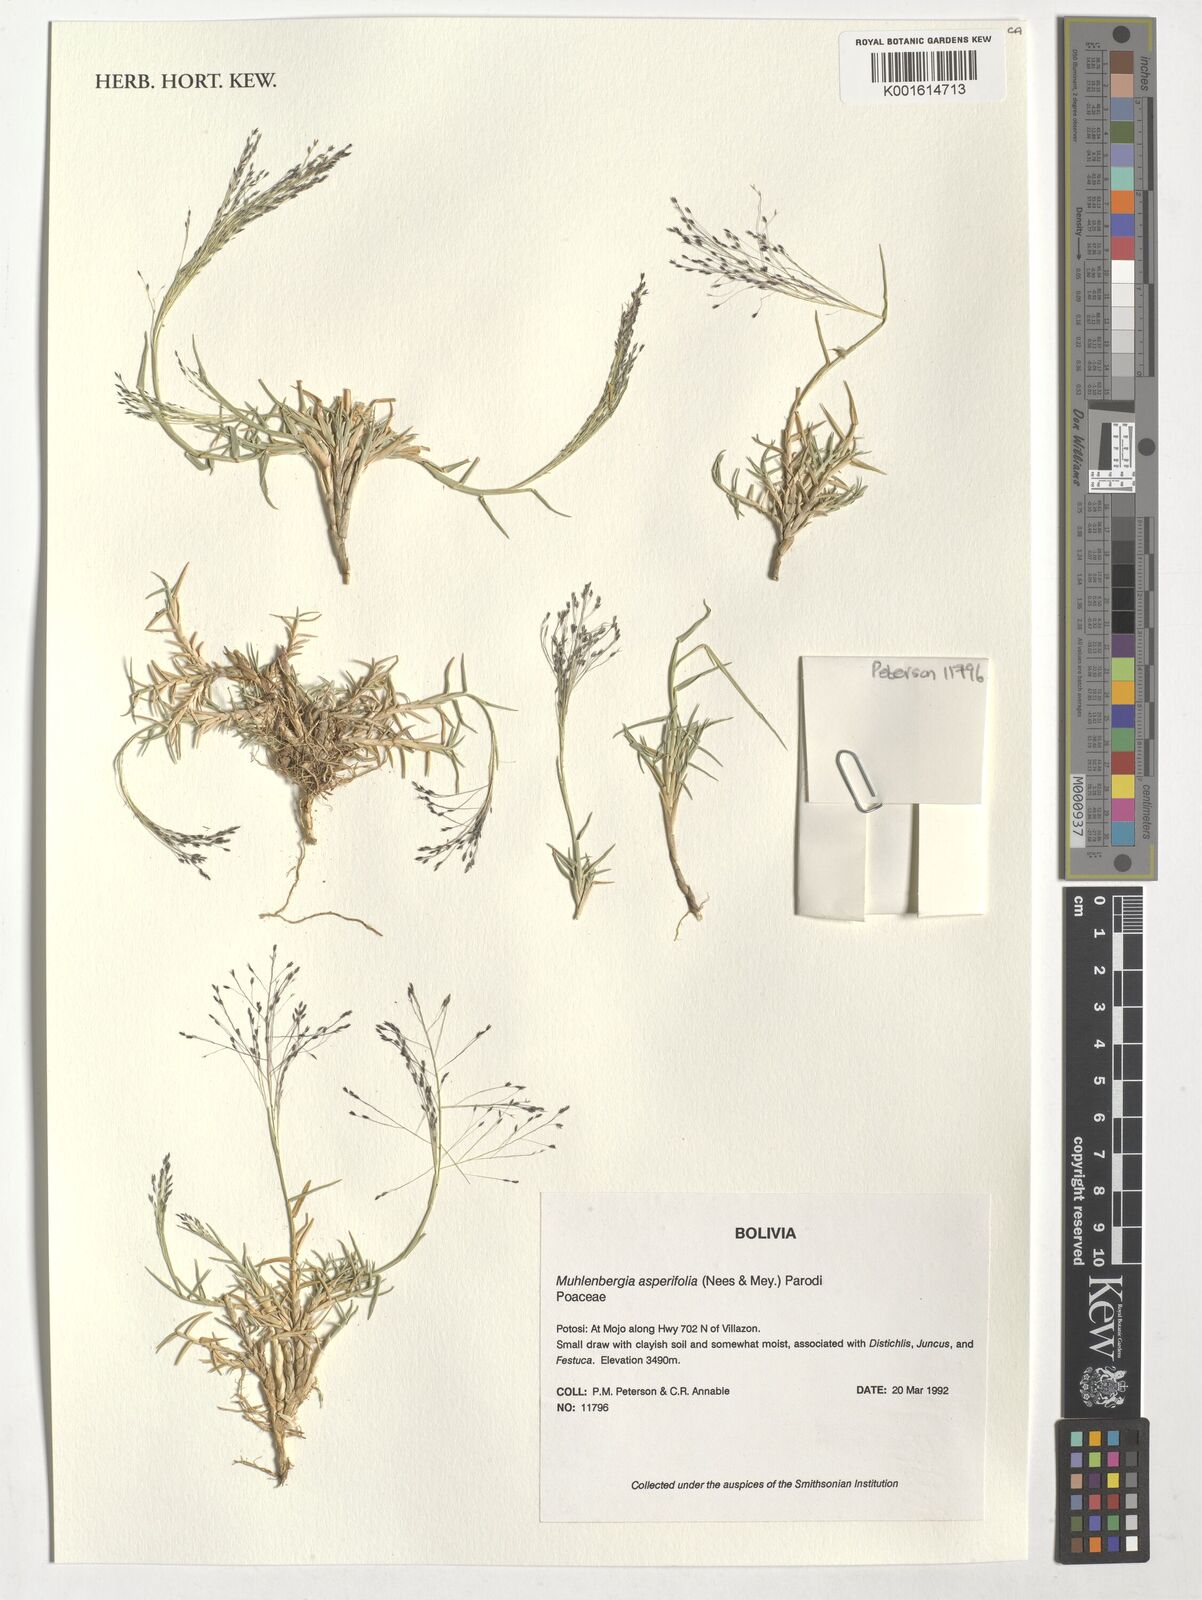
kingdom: Plantae
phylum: Tracheophyta
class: Liliopsida
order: Poales
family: Poaceae
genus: Muhlenbergia
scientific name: Muhlenbergia asperifolia
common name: Alkali muhly
